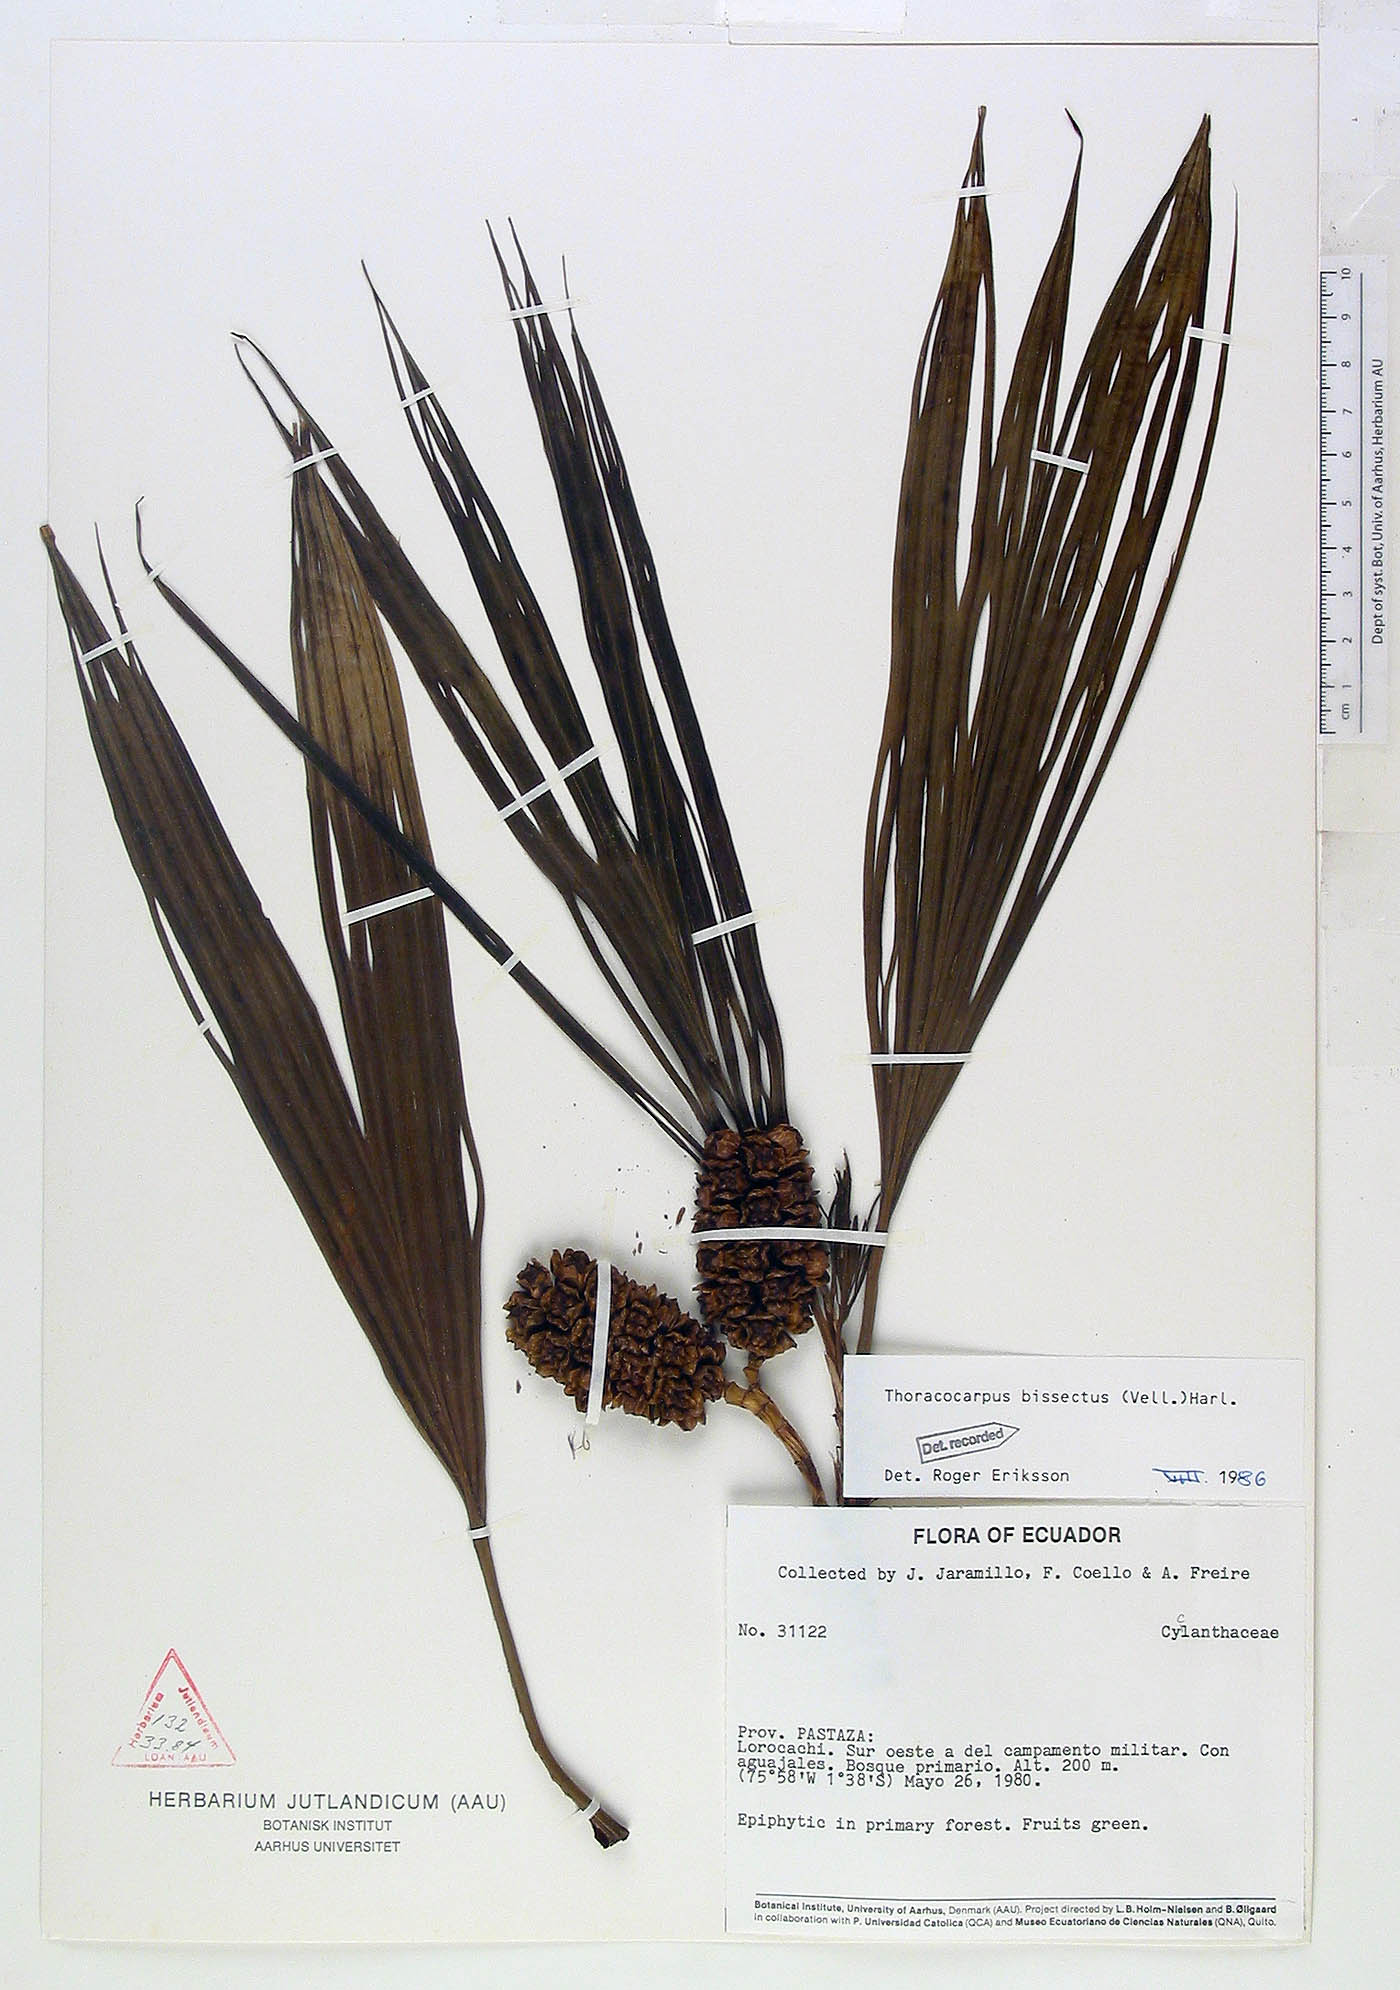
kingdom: Plantae
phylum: Tracheophyta
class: Liliopsida
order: Pandanales
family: Cyclanthaceae
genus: Thoracocarpus
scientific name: Thoracocarpus bissectus
